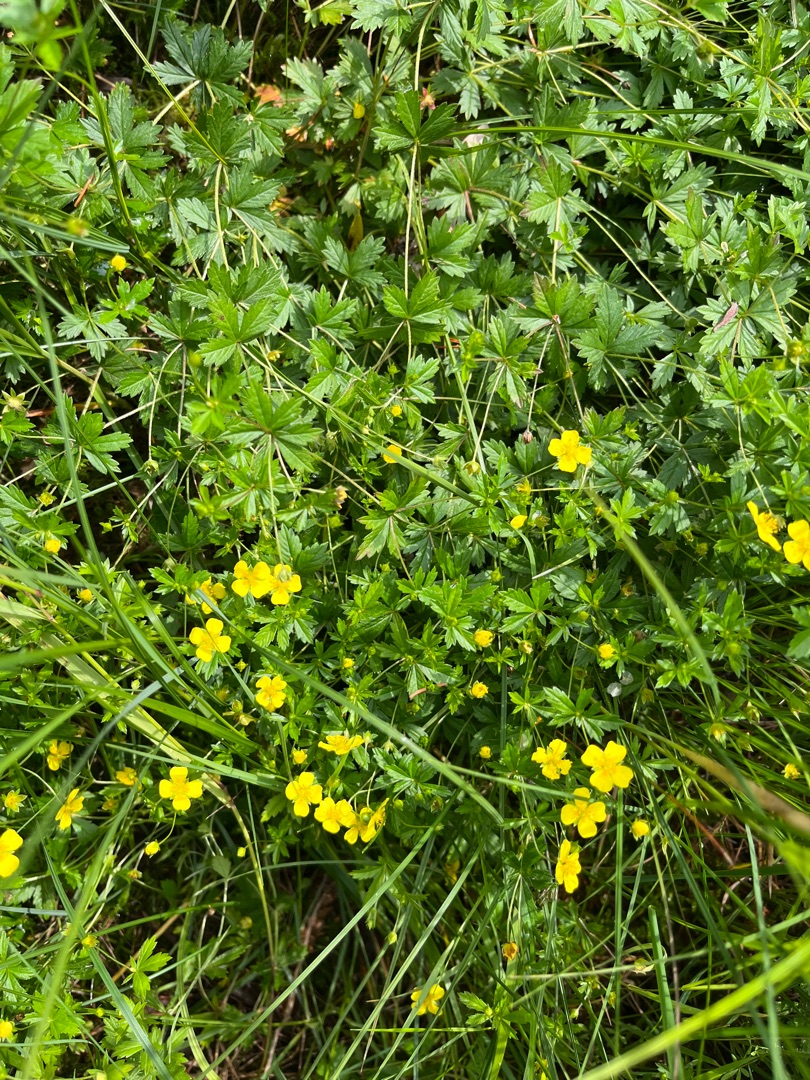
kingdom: Plantae
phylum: Tracheophyta
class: Magnoliopsida
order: Rosales
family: Rosaceae
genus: Potentilla
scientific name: Potentilla erecta
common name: Tormentil
